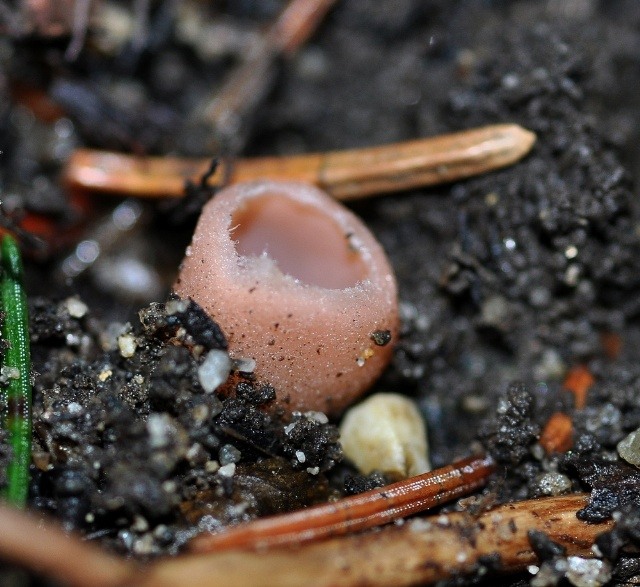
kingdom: Fungi
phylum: Ascomycota
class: Pezizomycetes
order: Pezizales
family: Pyronemataceae
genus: Rhodoscypha
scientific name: Rhodoscypha ovilla
